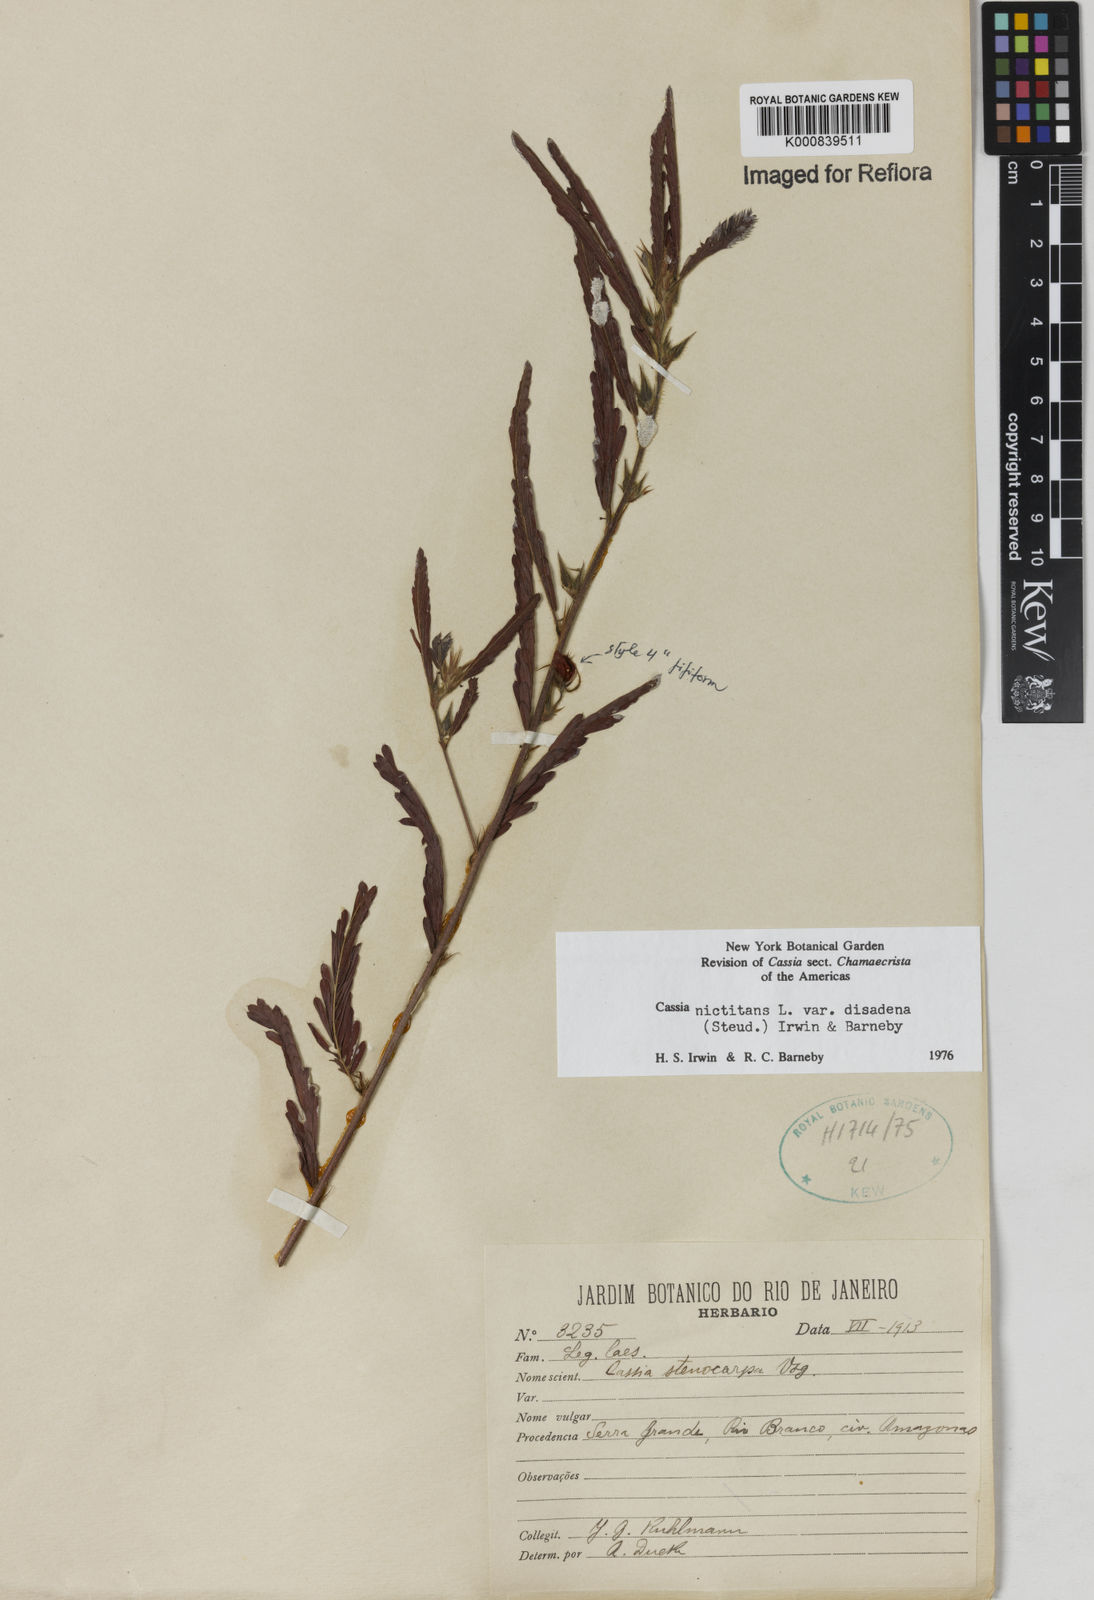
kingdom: Plantae
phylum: Tracheophyta
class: Magnoliopsida
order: Fabales
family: Fabaceae
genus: Chamaecrista
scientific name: Chamaecrista nictitans
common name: Sensitive cassia
